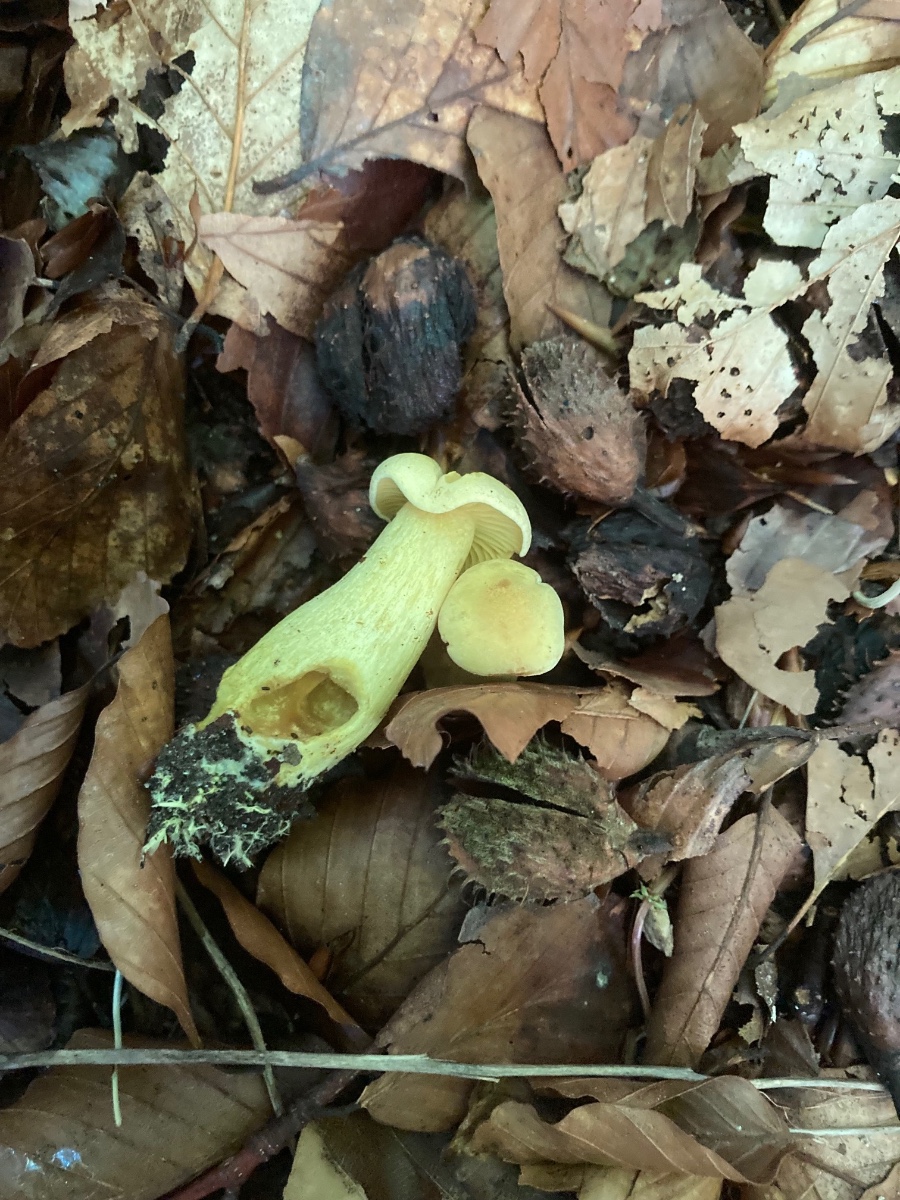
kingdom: Fungi
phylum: Basidiomycota
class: Agaricomycetes
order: Agaricales
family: Tricholomataceae
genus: Tricholoma
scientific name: Tricholoma sulphureum
